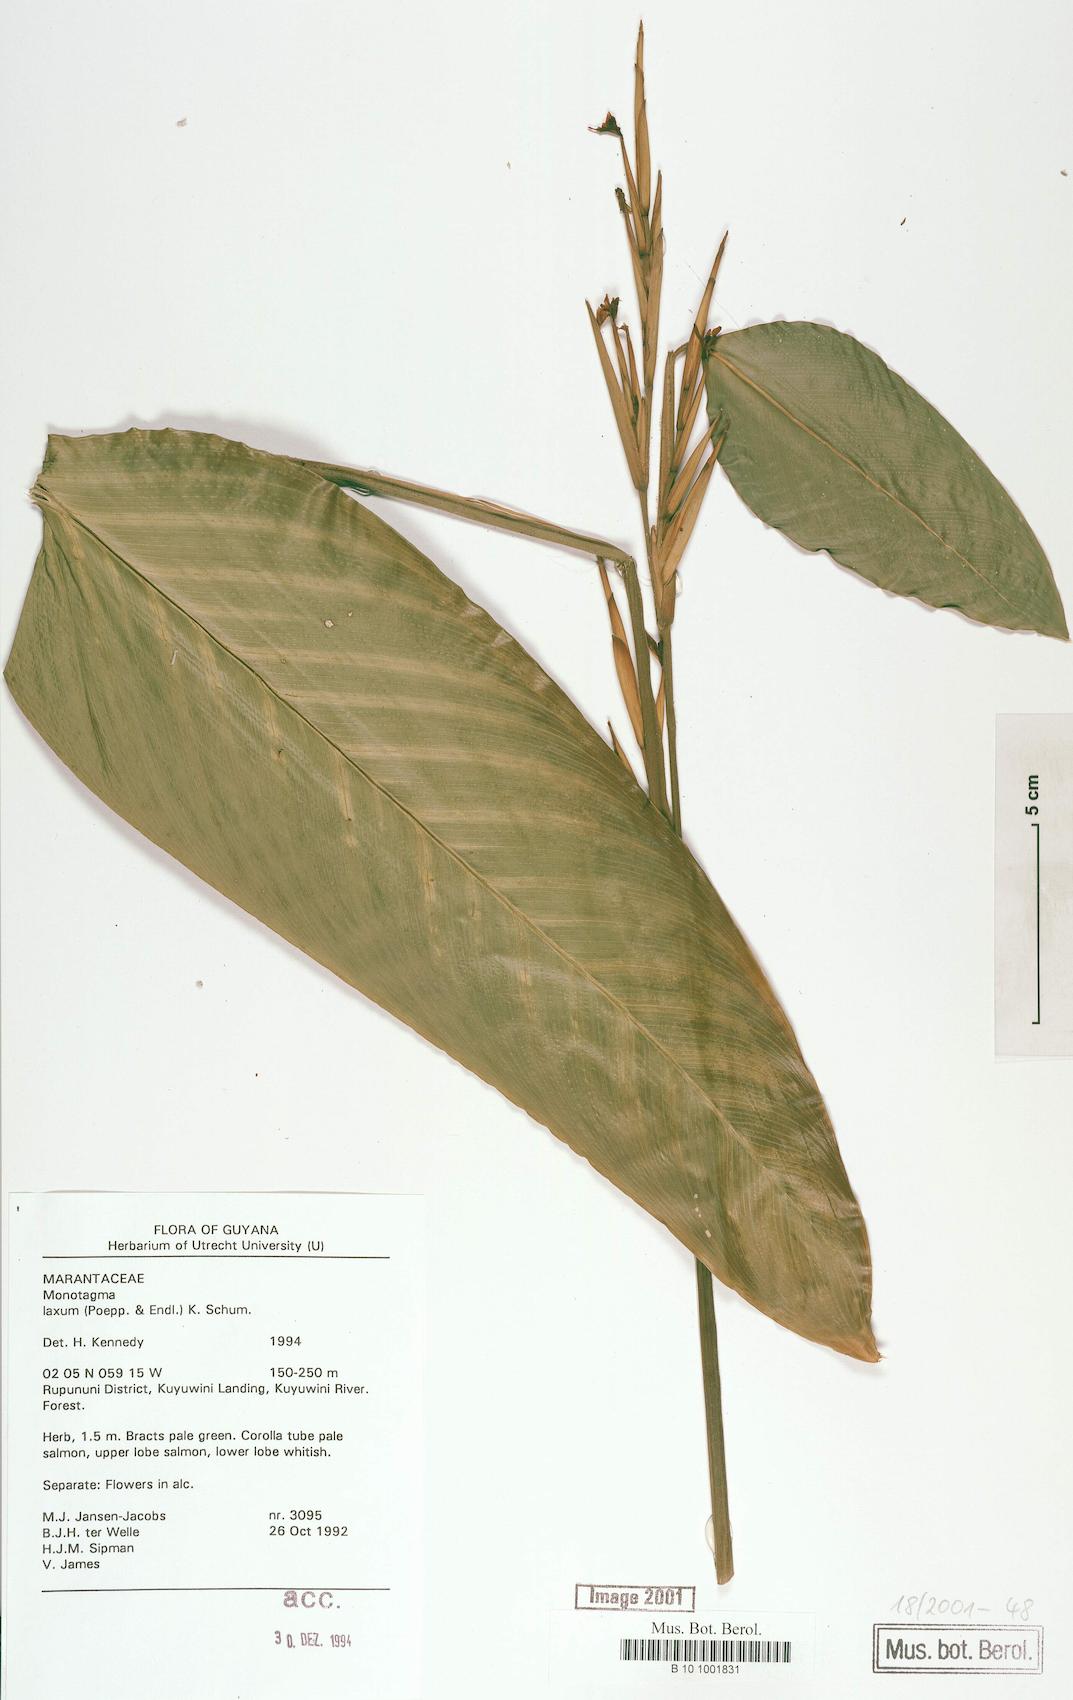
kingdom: Plantae
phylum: Tracheophyta
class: Liliopsida
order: Zingiberales
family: Marantaceae
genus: Monotagma
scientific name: Monotagma laxum
